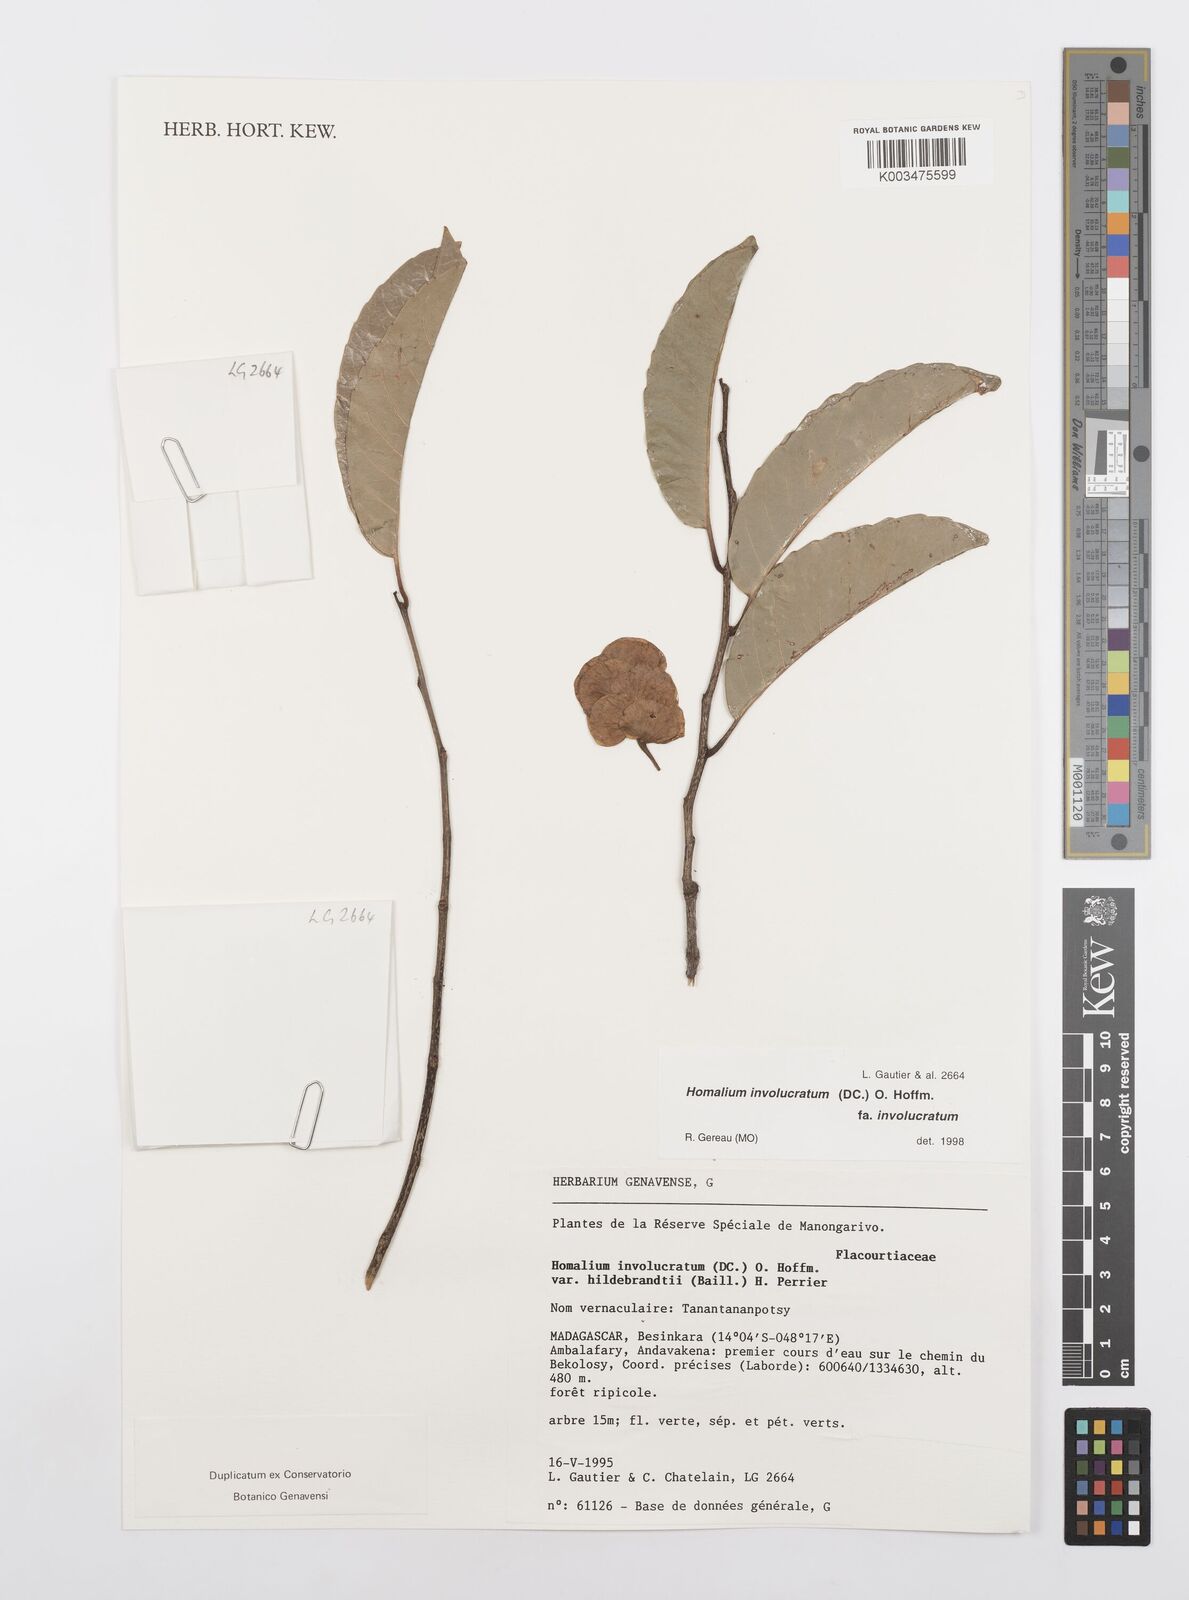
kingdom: Plantae
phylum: Tracheophyta
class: Magnoliopsida
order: Malpighiales
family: Salicaceae
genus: Homalium
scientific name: Homalium involucratum
